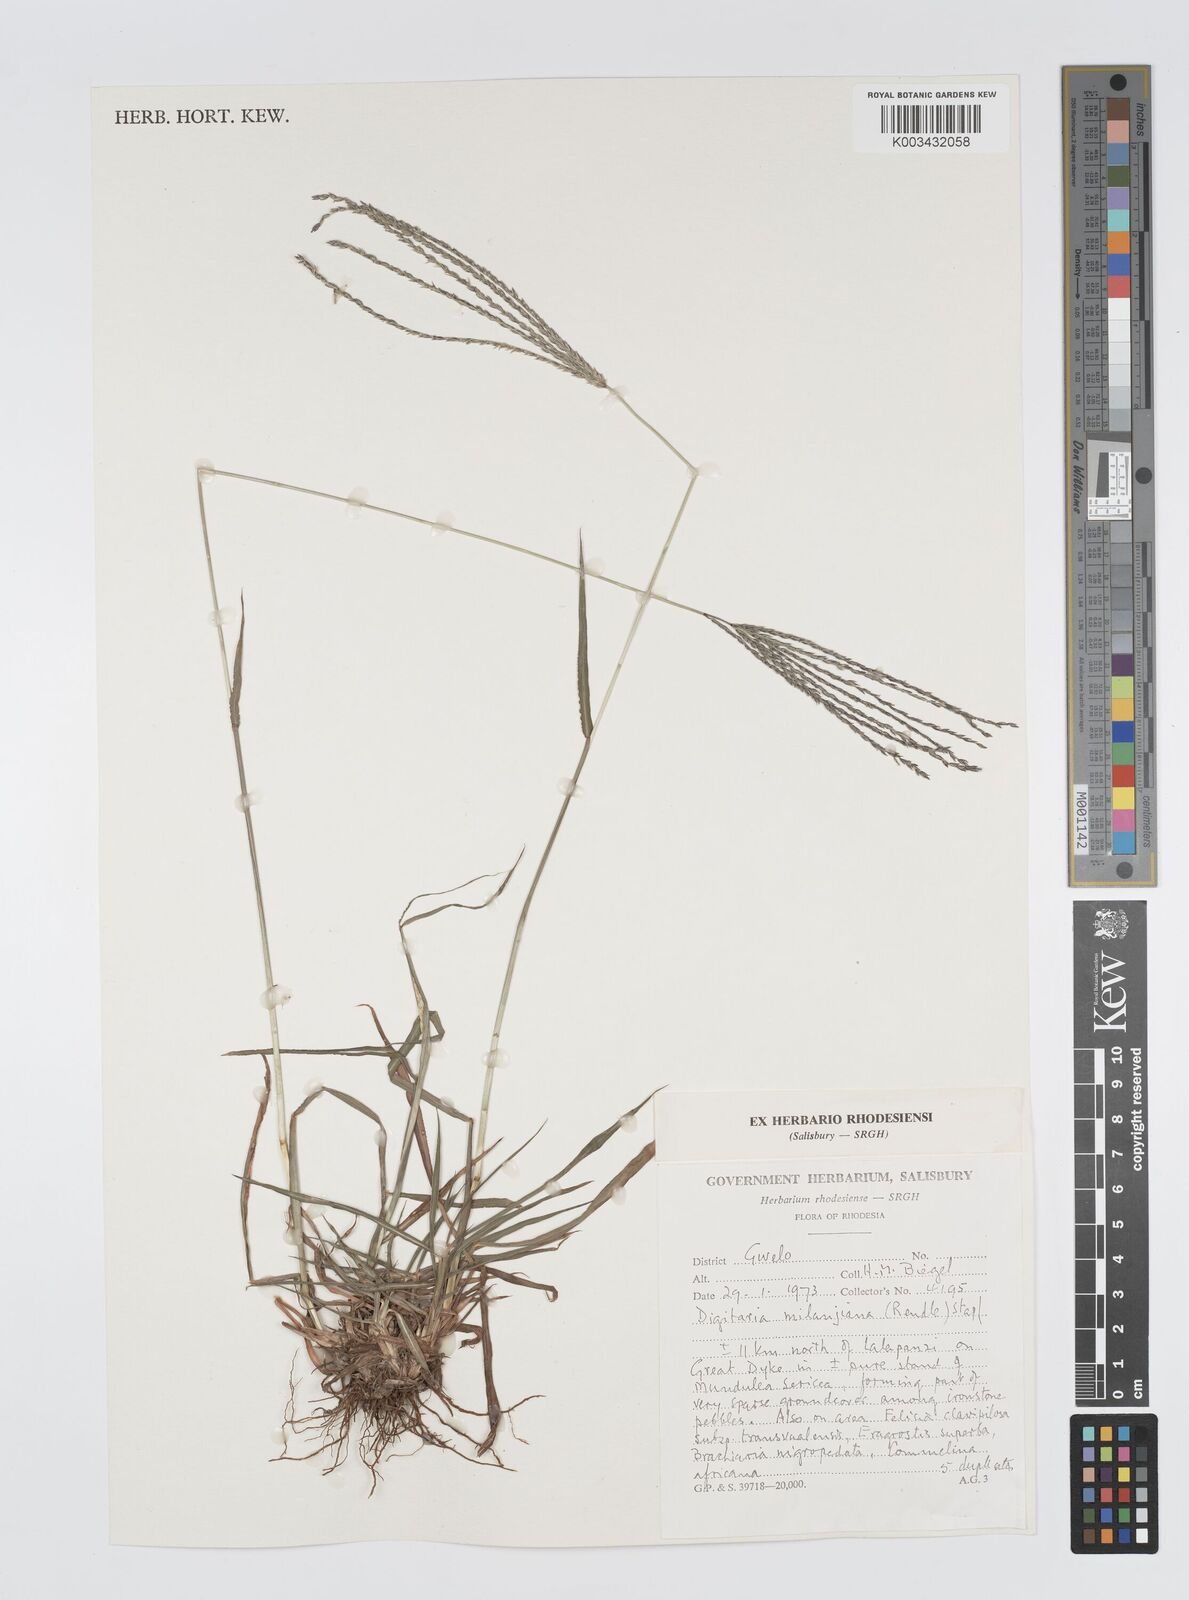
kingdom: Plantae
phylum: Tracheophyta
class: Liliopsida
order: Poales
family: Poaceae
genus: Digitaria
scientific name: Digitaria milanjiana
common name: Madagascar crabgrass
